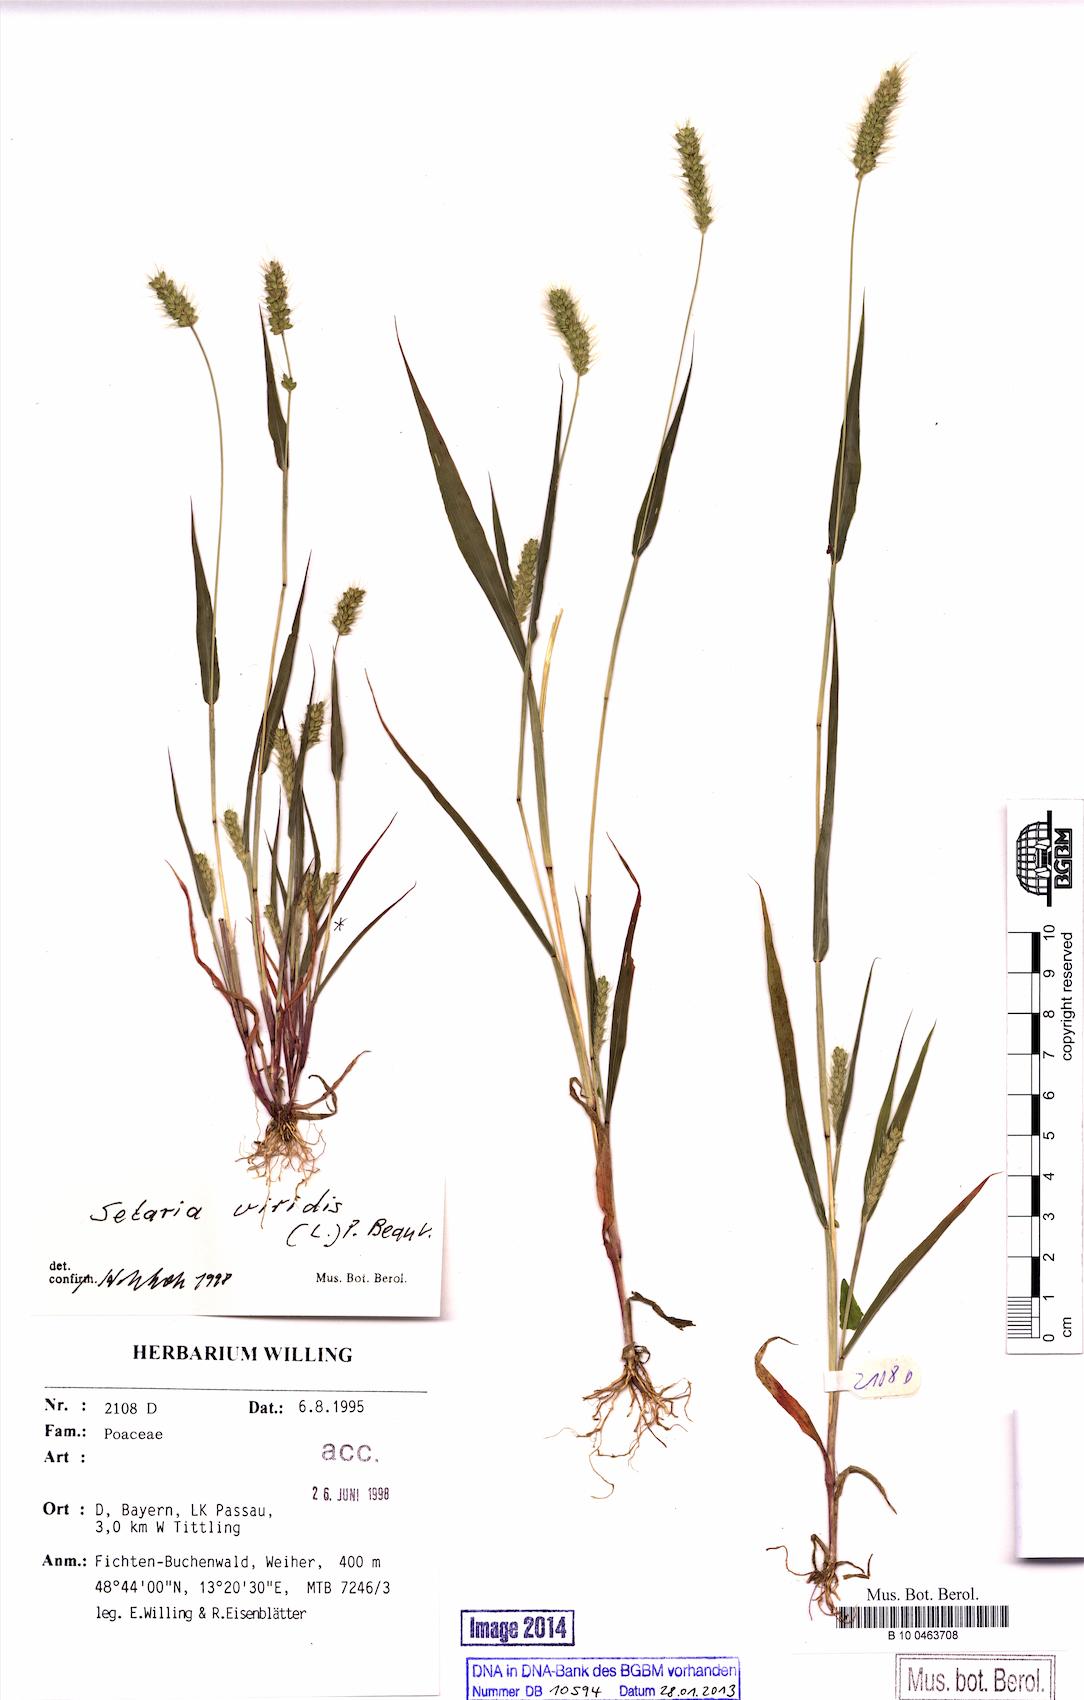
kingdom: Plantae
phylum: Tracheophyta
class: Liliopsida
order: Poales
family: Poaceae
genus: Setaria
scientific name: Setaria viridis
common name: Green bristlegrass
